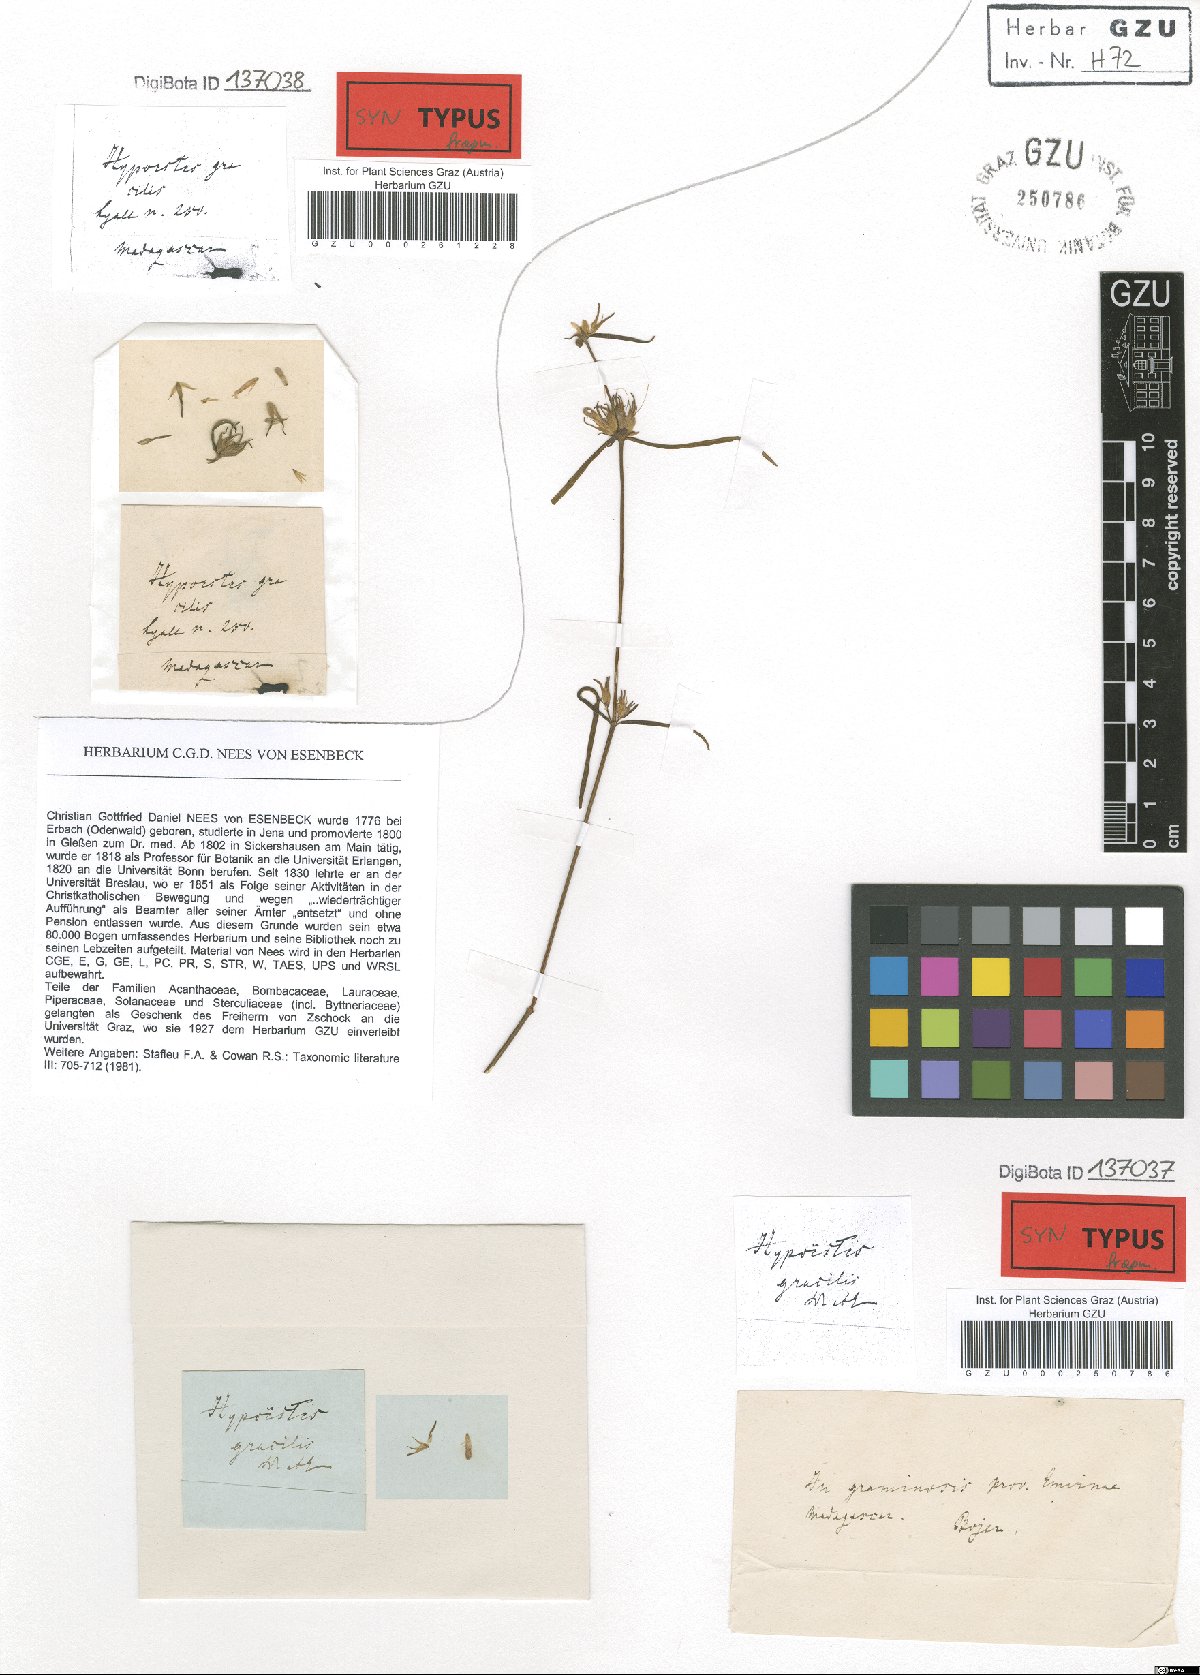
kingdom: Plantae
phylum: Tracheophyta
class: Magnoliopsida
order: Lamiales
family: Acanthaceae
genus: Hypoestes
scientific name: Hypoestes gracilis
